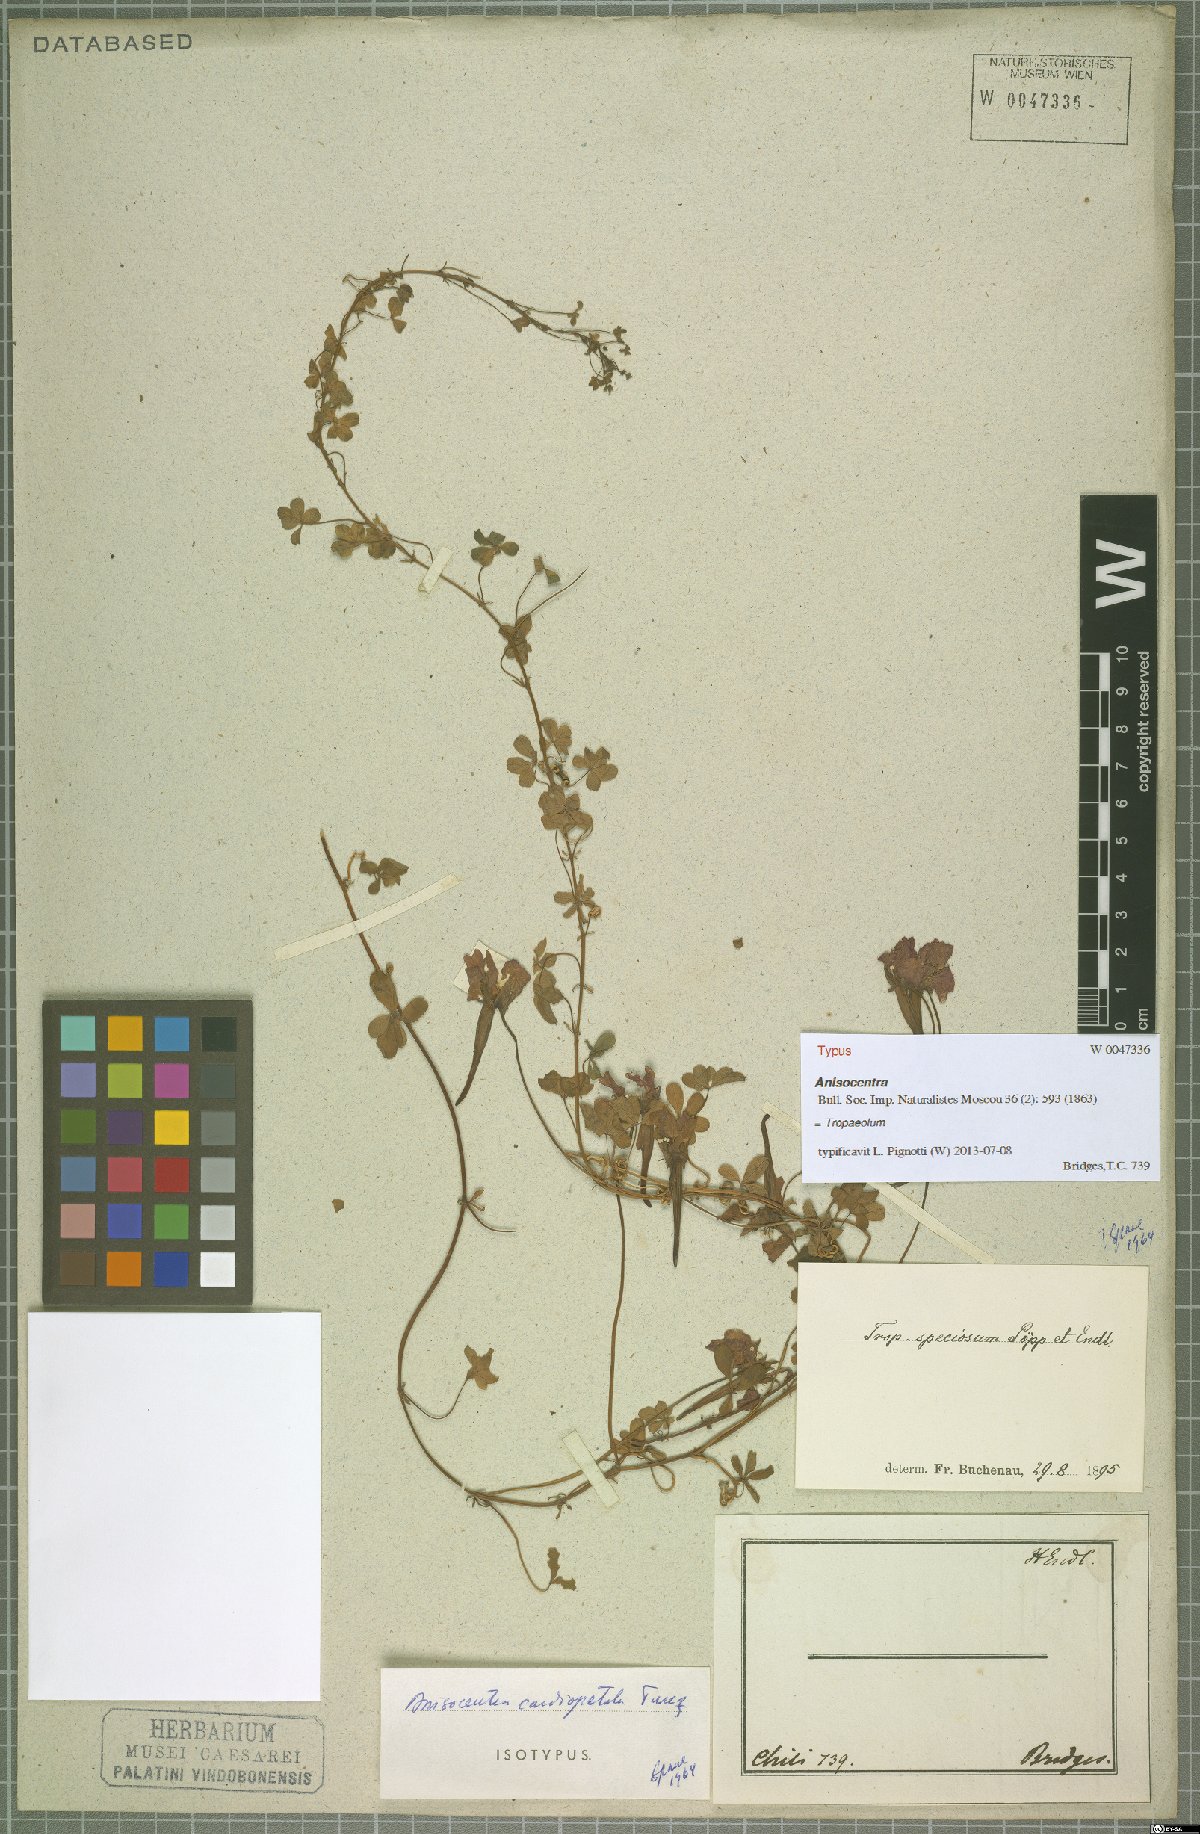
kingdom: Plantae
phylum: Tracheophyta
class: Magnoliopsida
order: Brassicales
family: Tropaeolaceae
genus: Tropaeolum
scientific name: Tropaeolum speciosum
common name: Flame nasturtium
